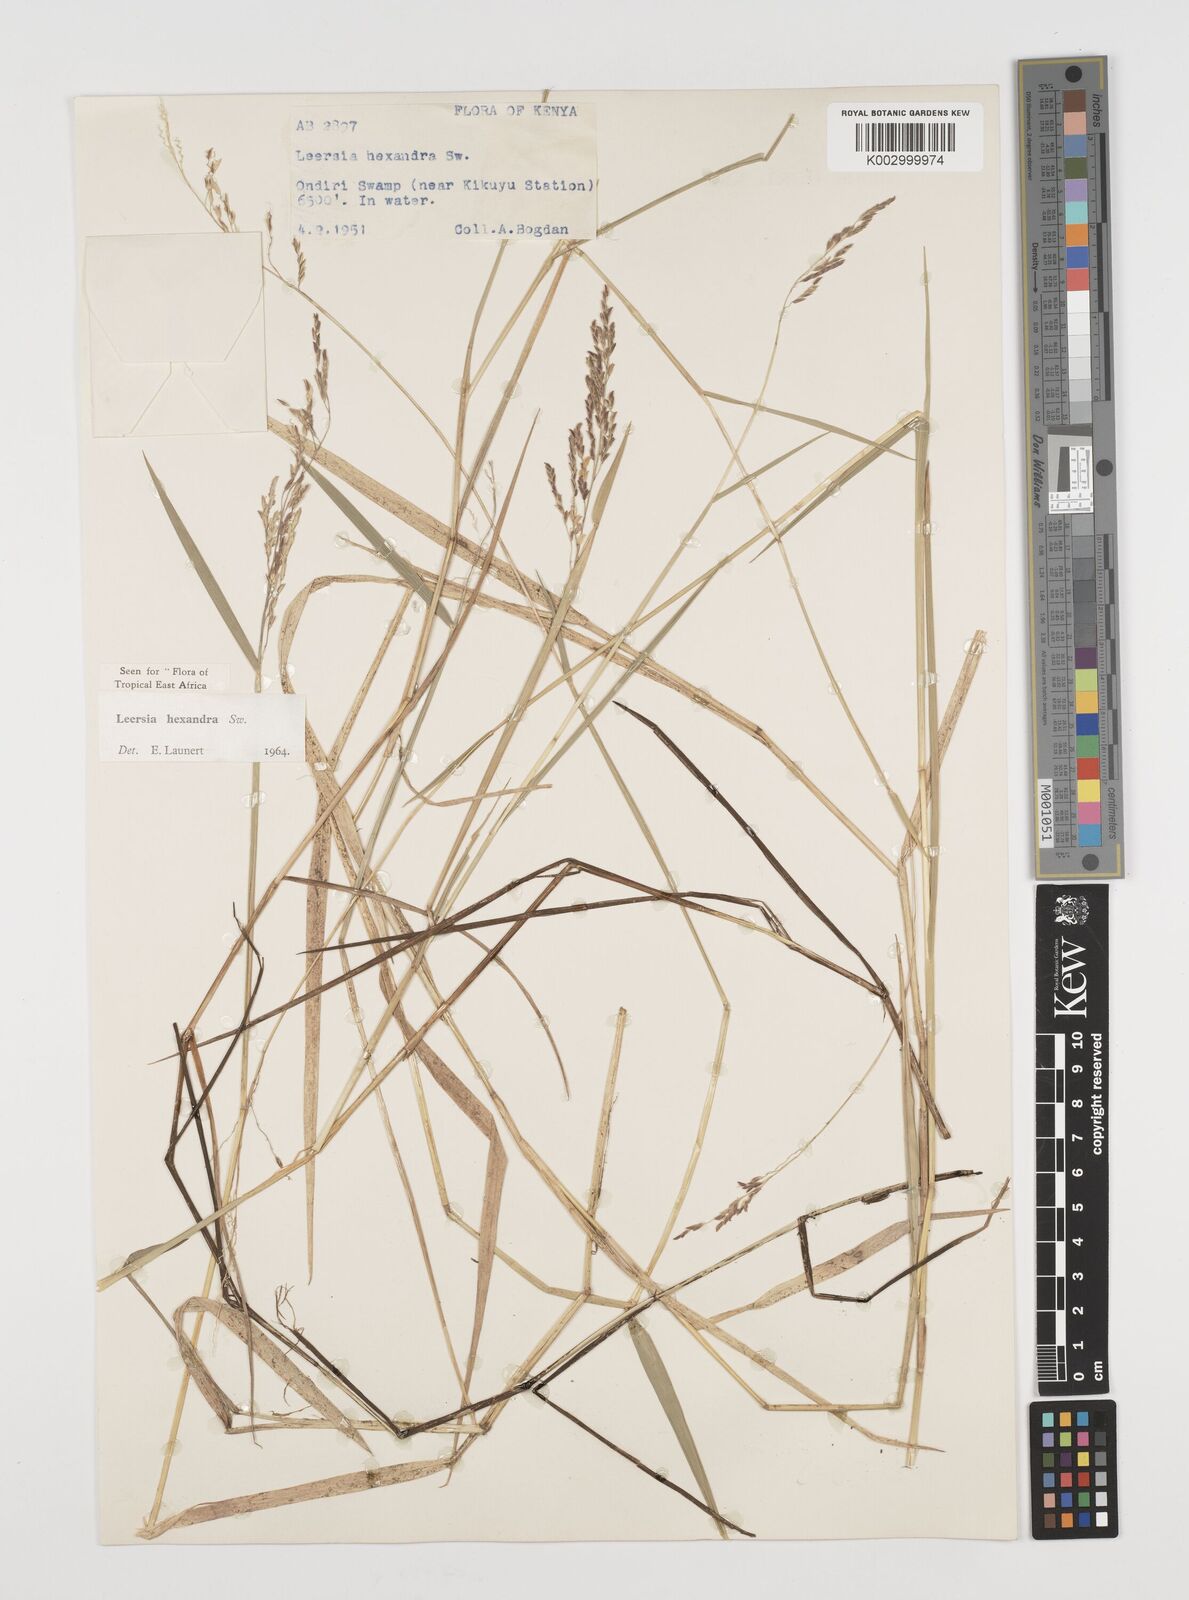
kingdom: Plantae
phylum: Tracheophyta
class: Liliopsida
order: Poales
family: Poaceae
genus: Leersia
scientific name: Leersia hexandra
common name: Southern cut grass
